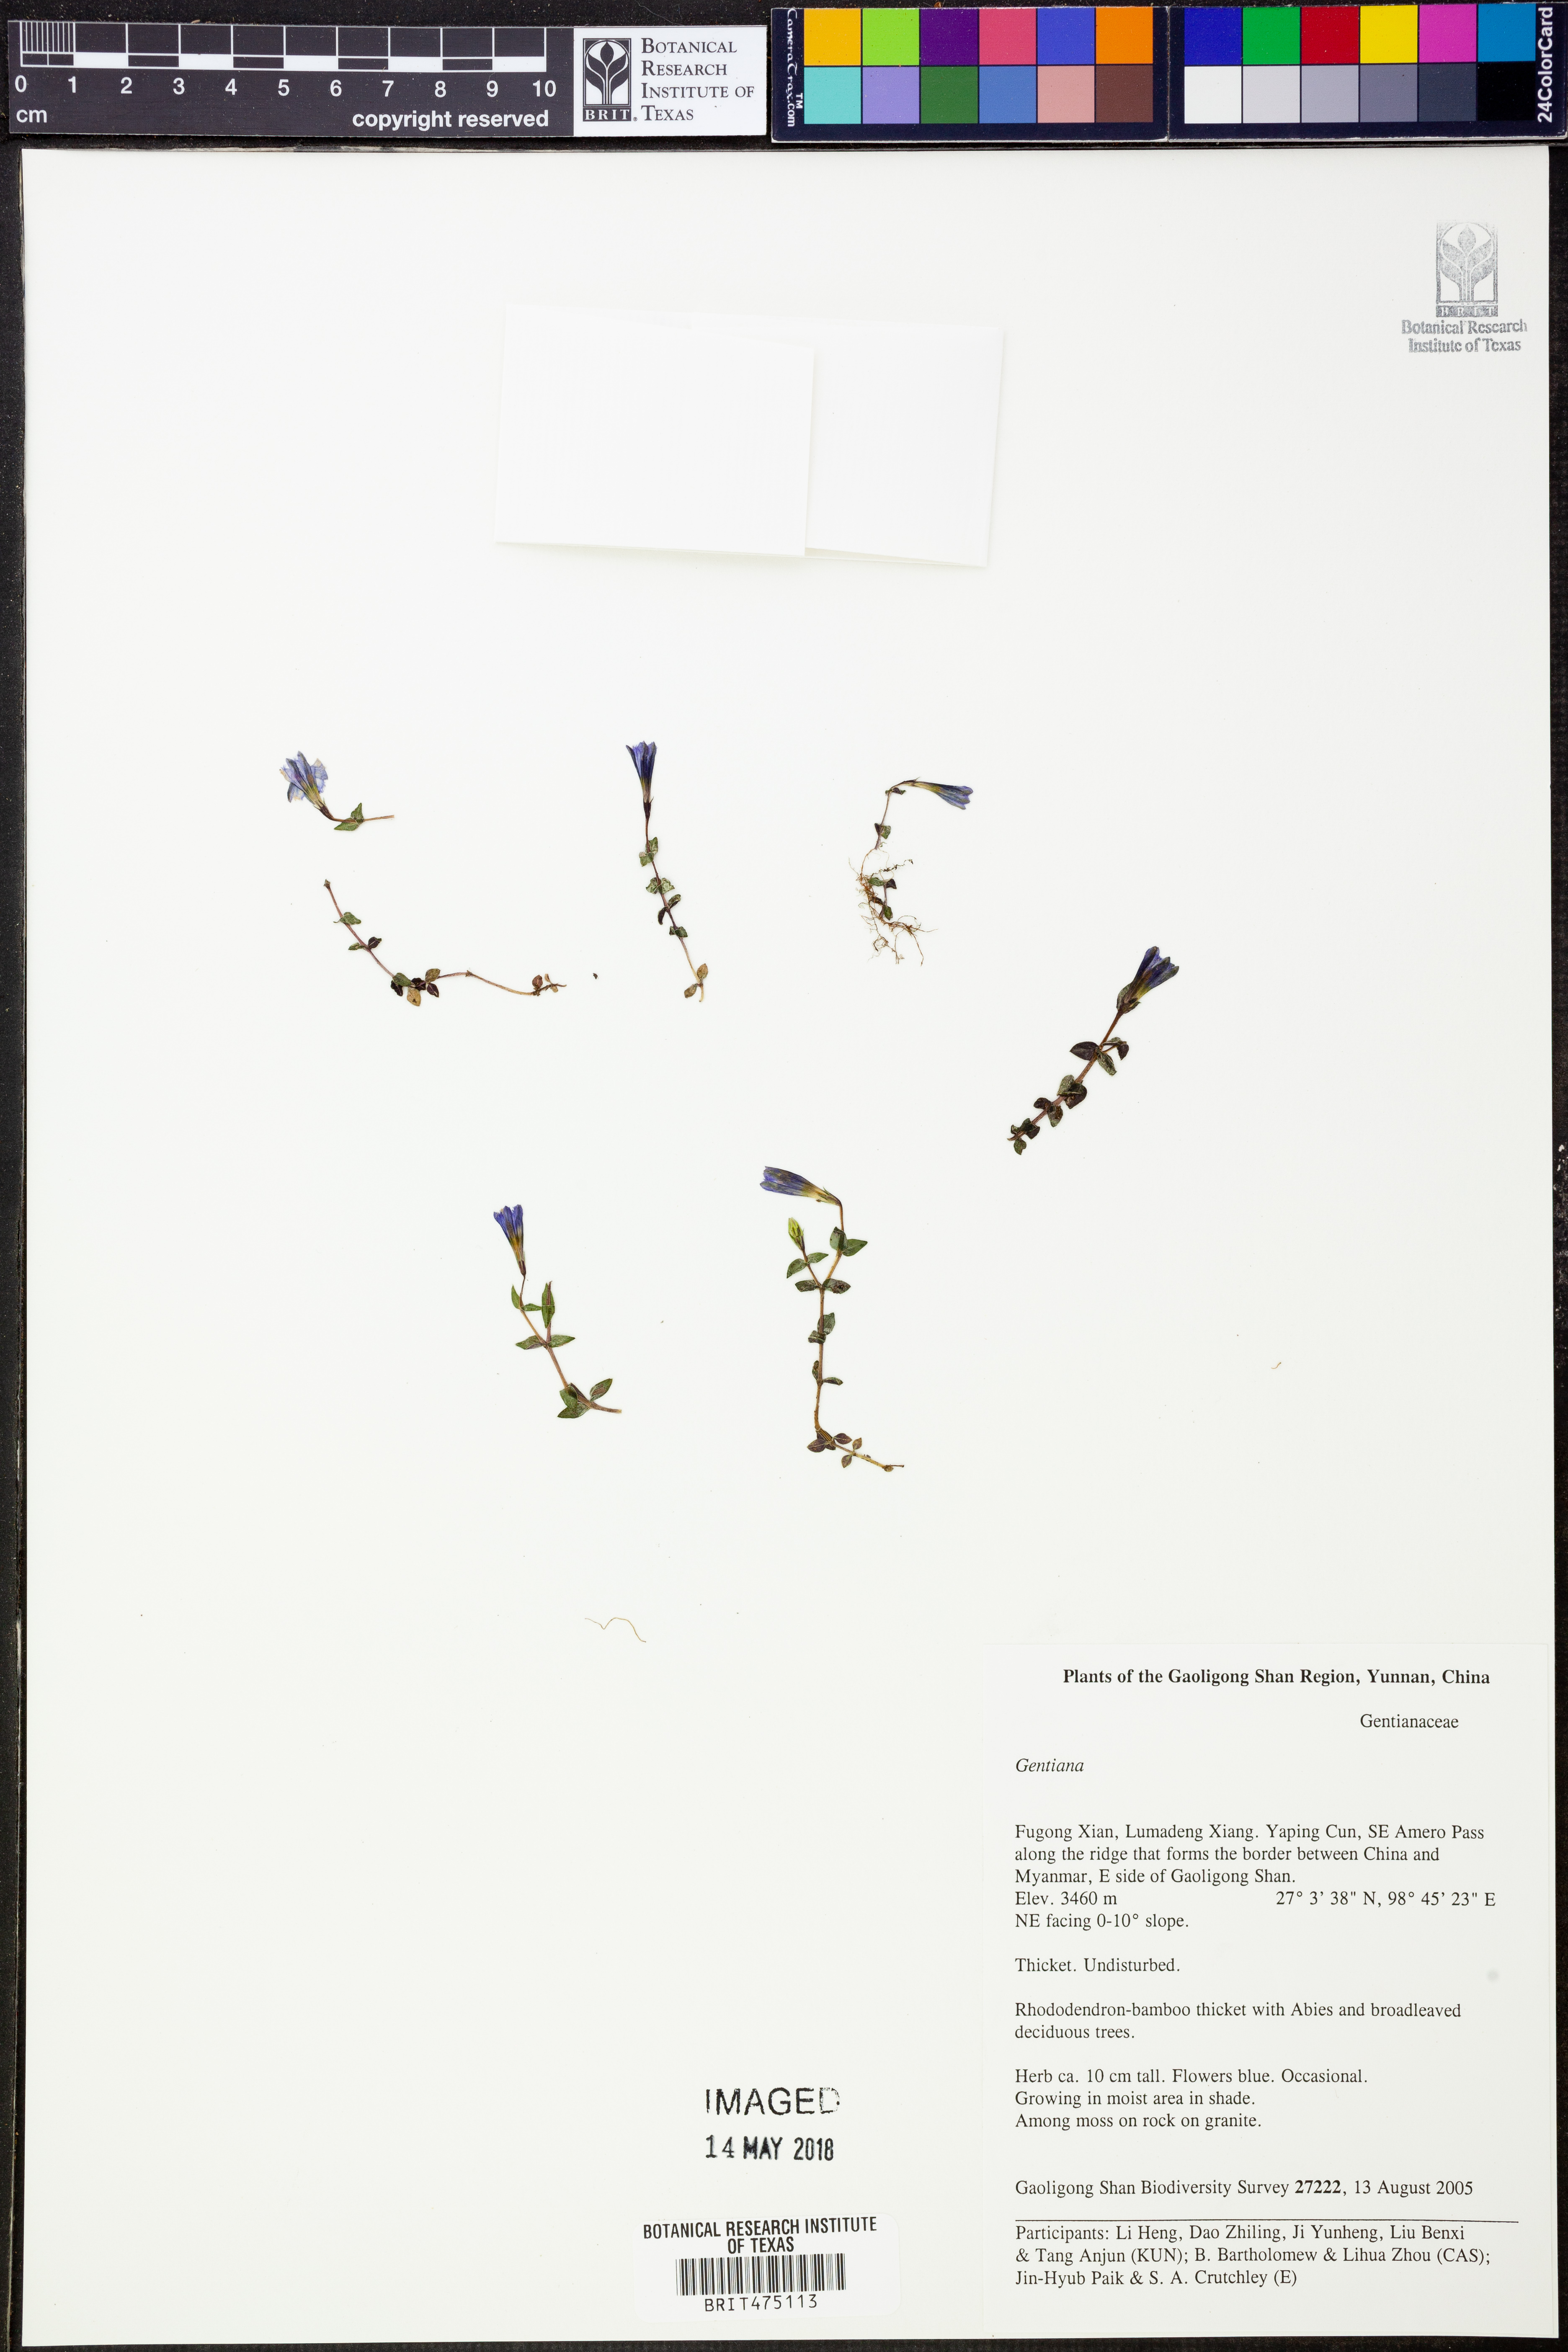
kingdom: Plantae
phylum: Tracheophyta
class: Magnoliopsida
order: Gentianales
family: Gentianaceae
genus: Gentiana
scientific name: Gentiana
